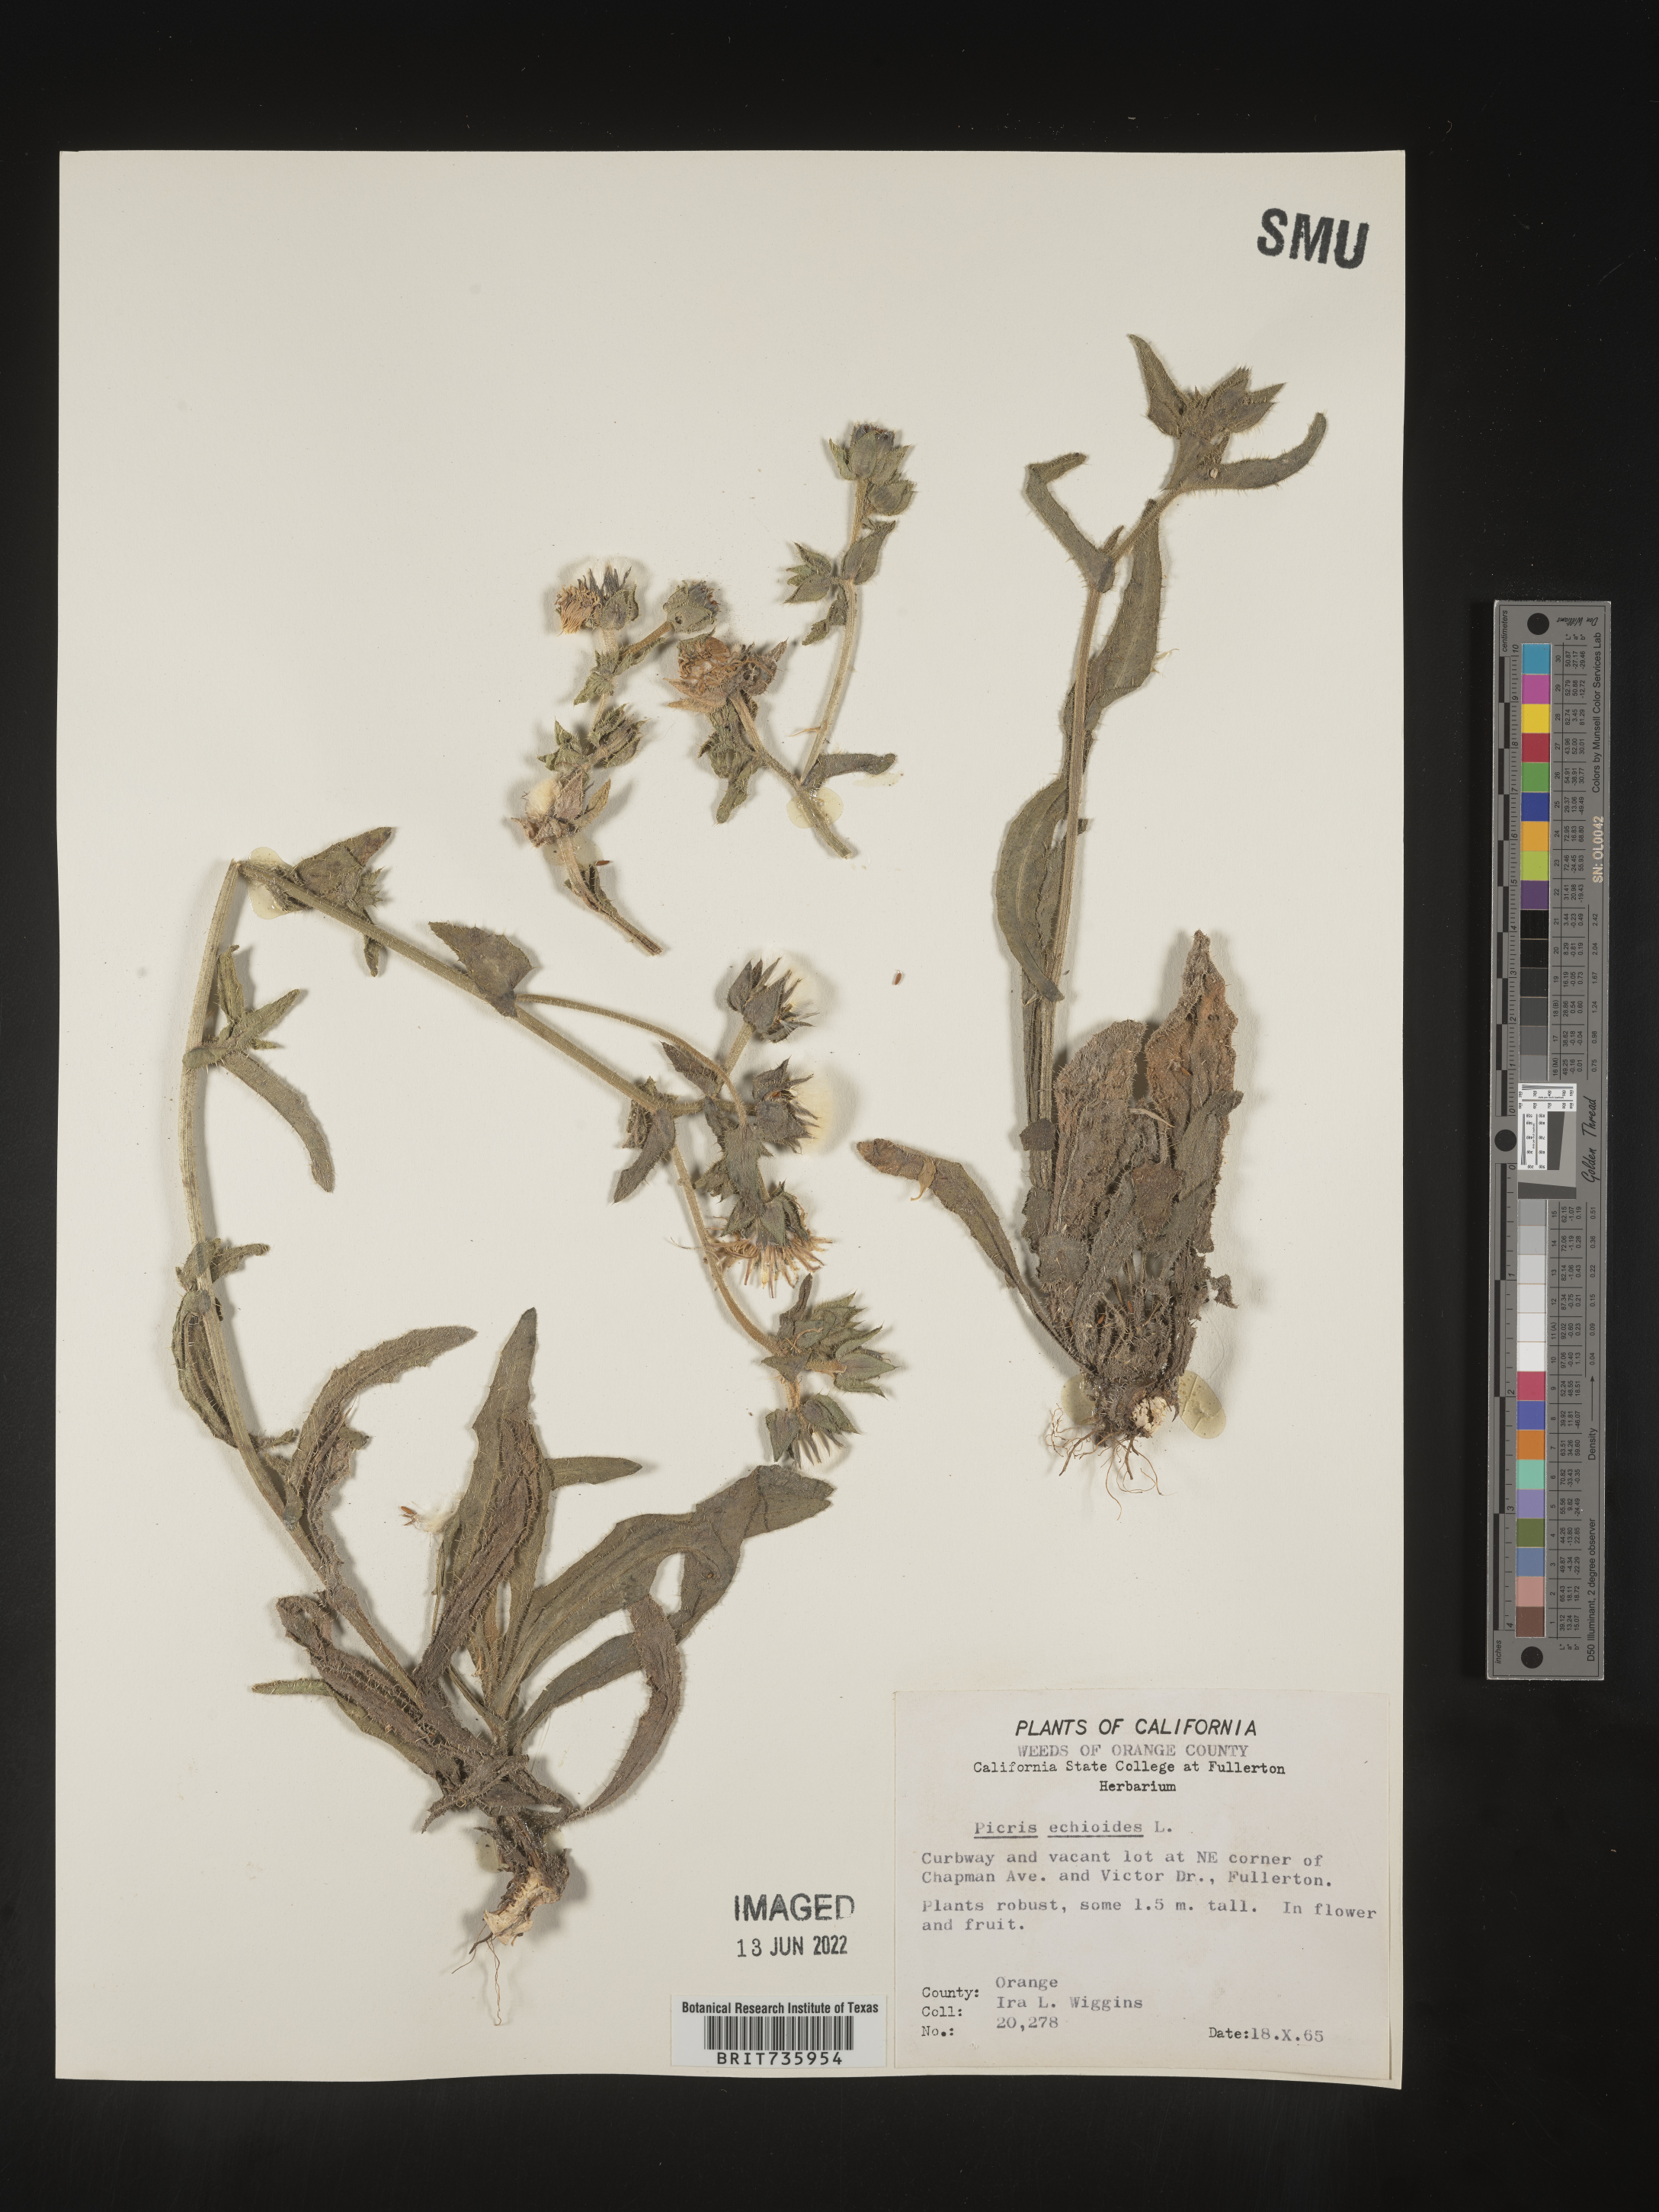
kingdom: Plantae
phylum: Tracheophyta
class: Magnoliopsida
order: Asterales
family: Asteraceae
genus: Picris
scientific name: Picris
